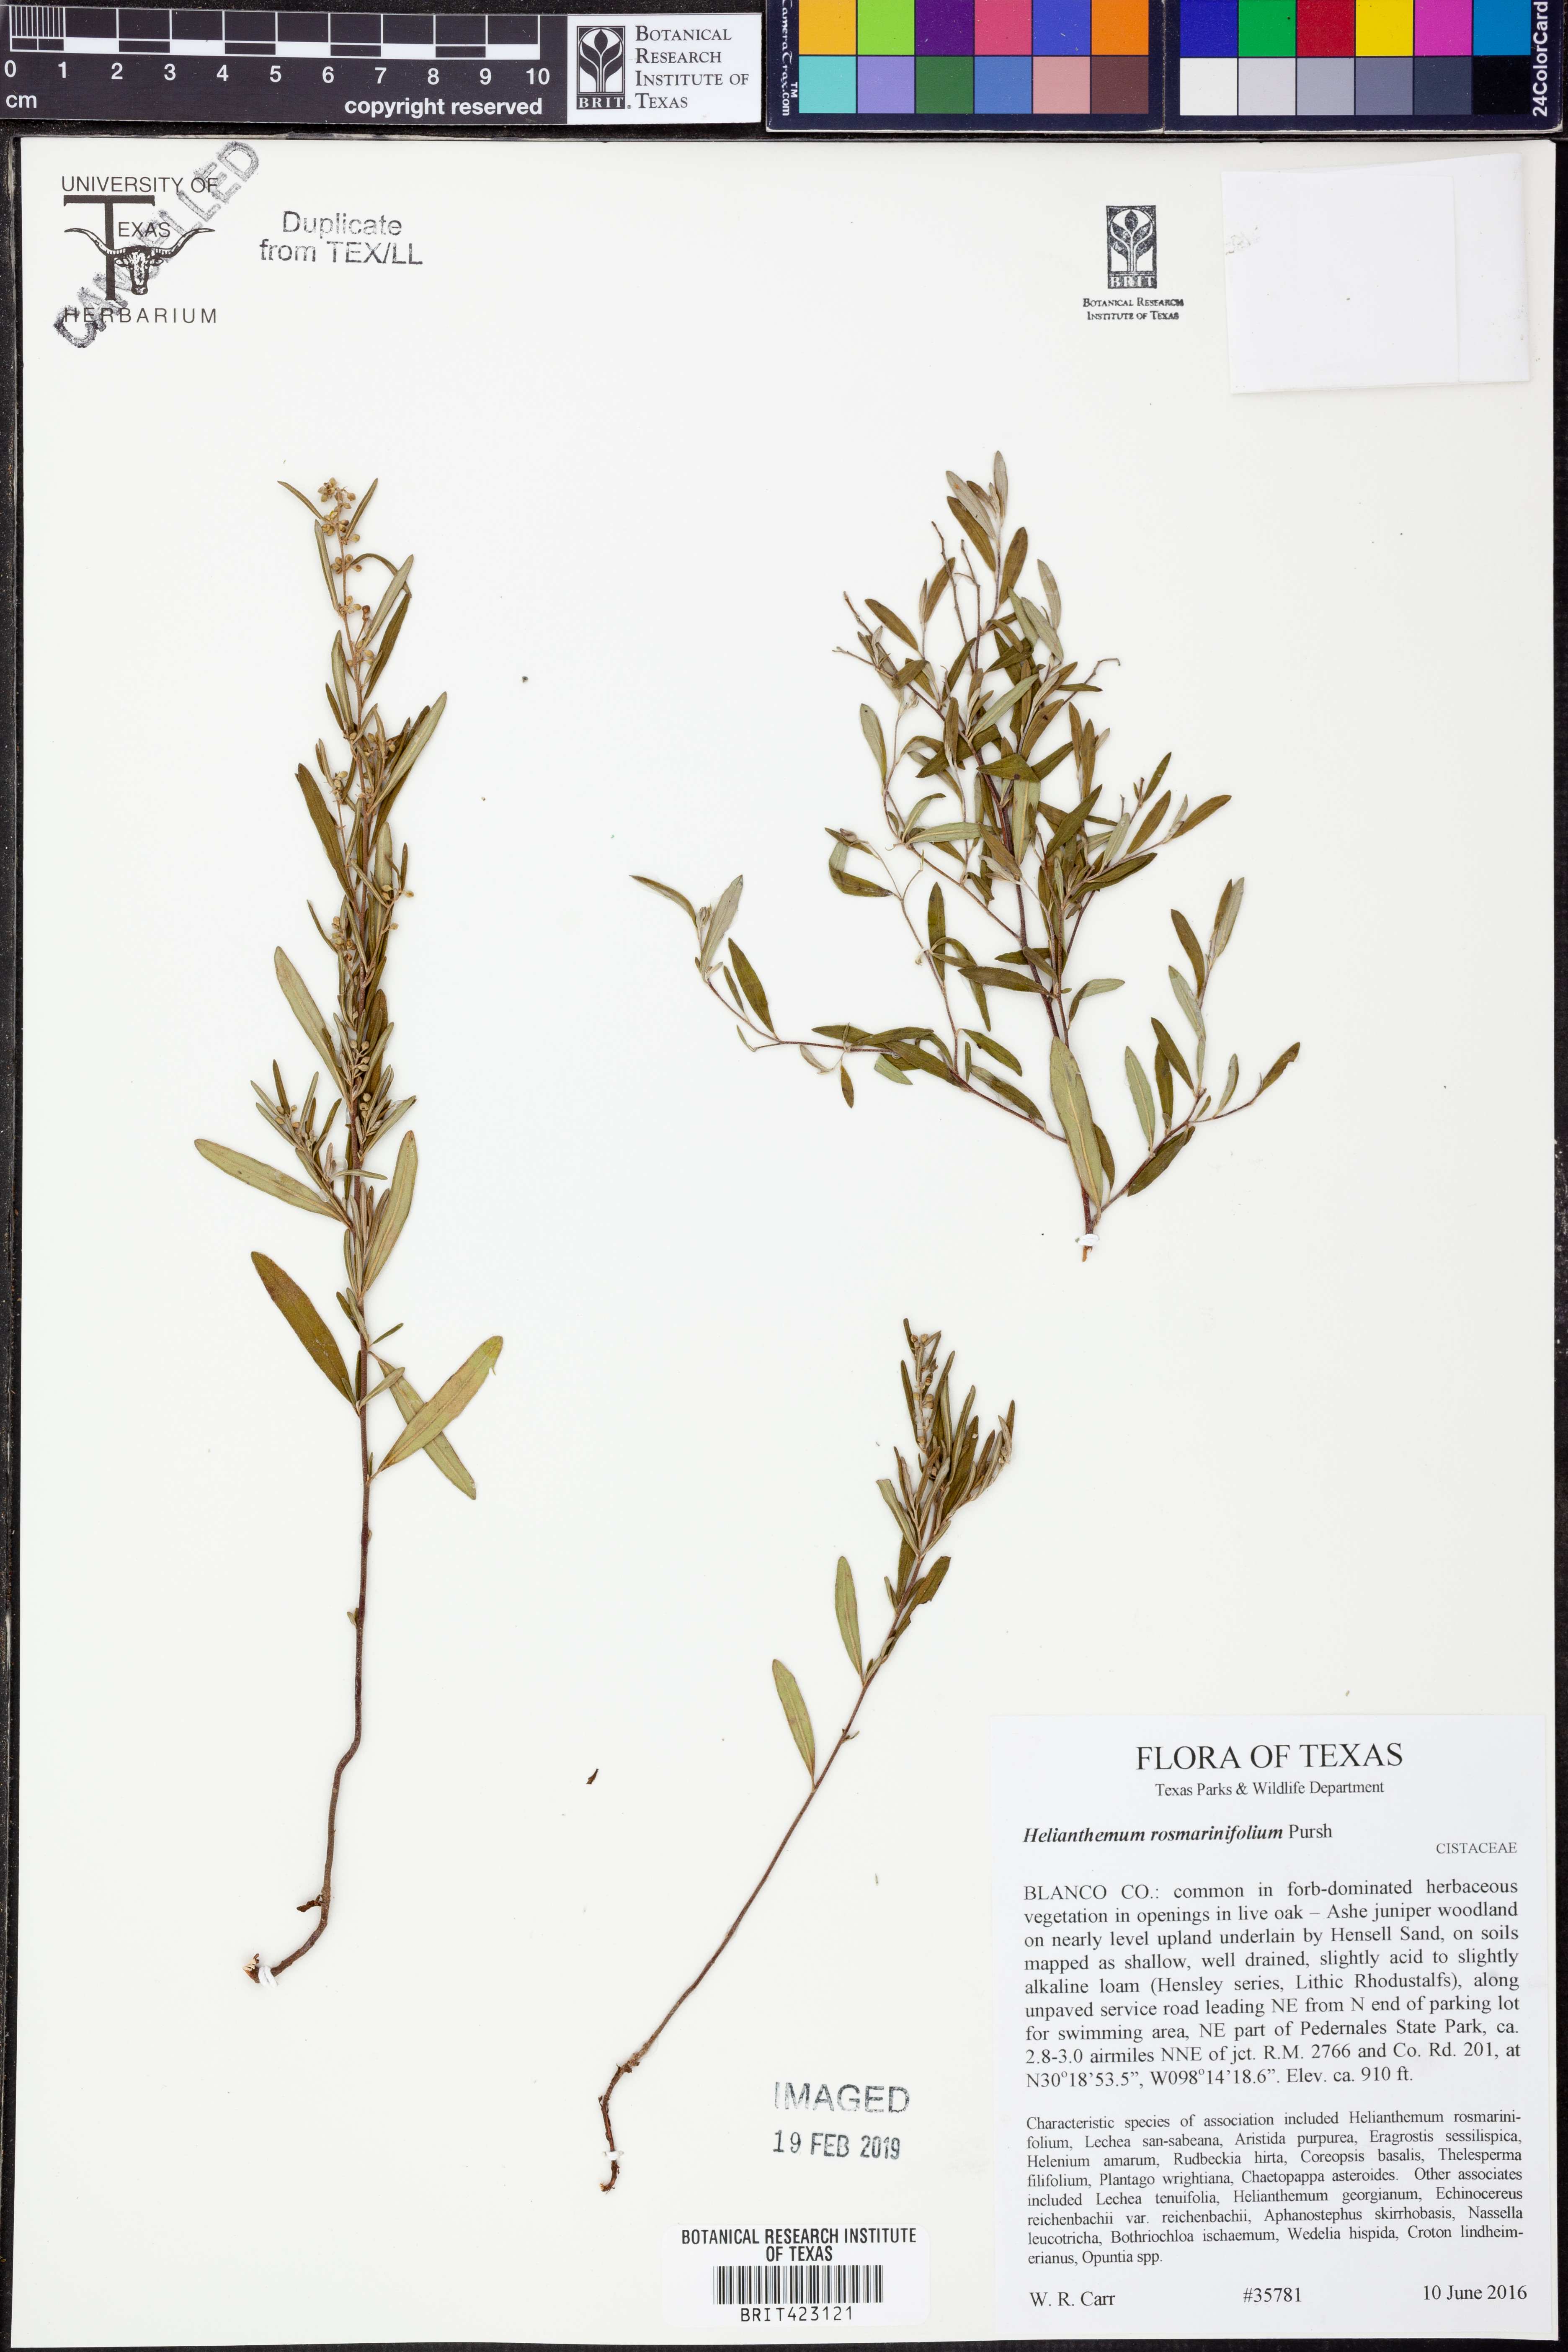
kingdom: Plantae
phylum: Tracheophyta
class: Magnoliopsida
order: Malvales
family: Cistaceae
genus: Crocanthemum
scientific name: Crocanthemum rosmarinifolium
